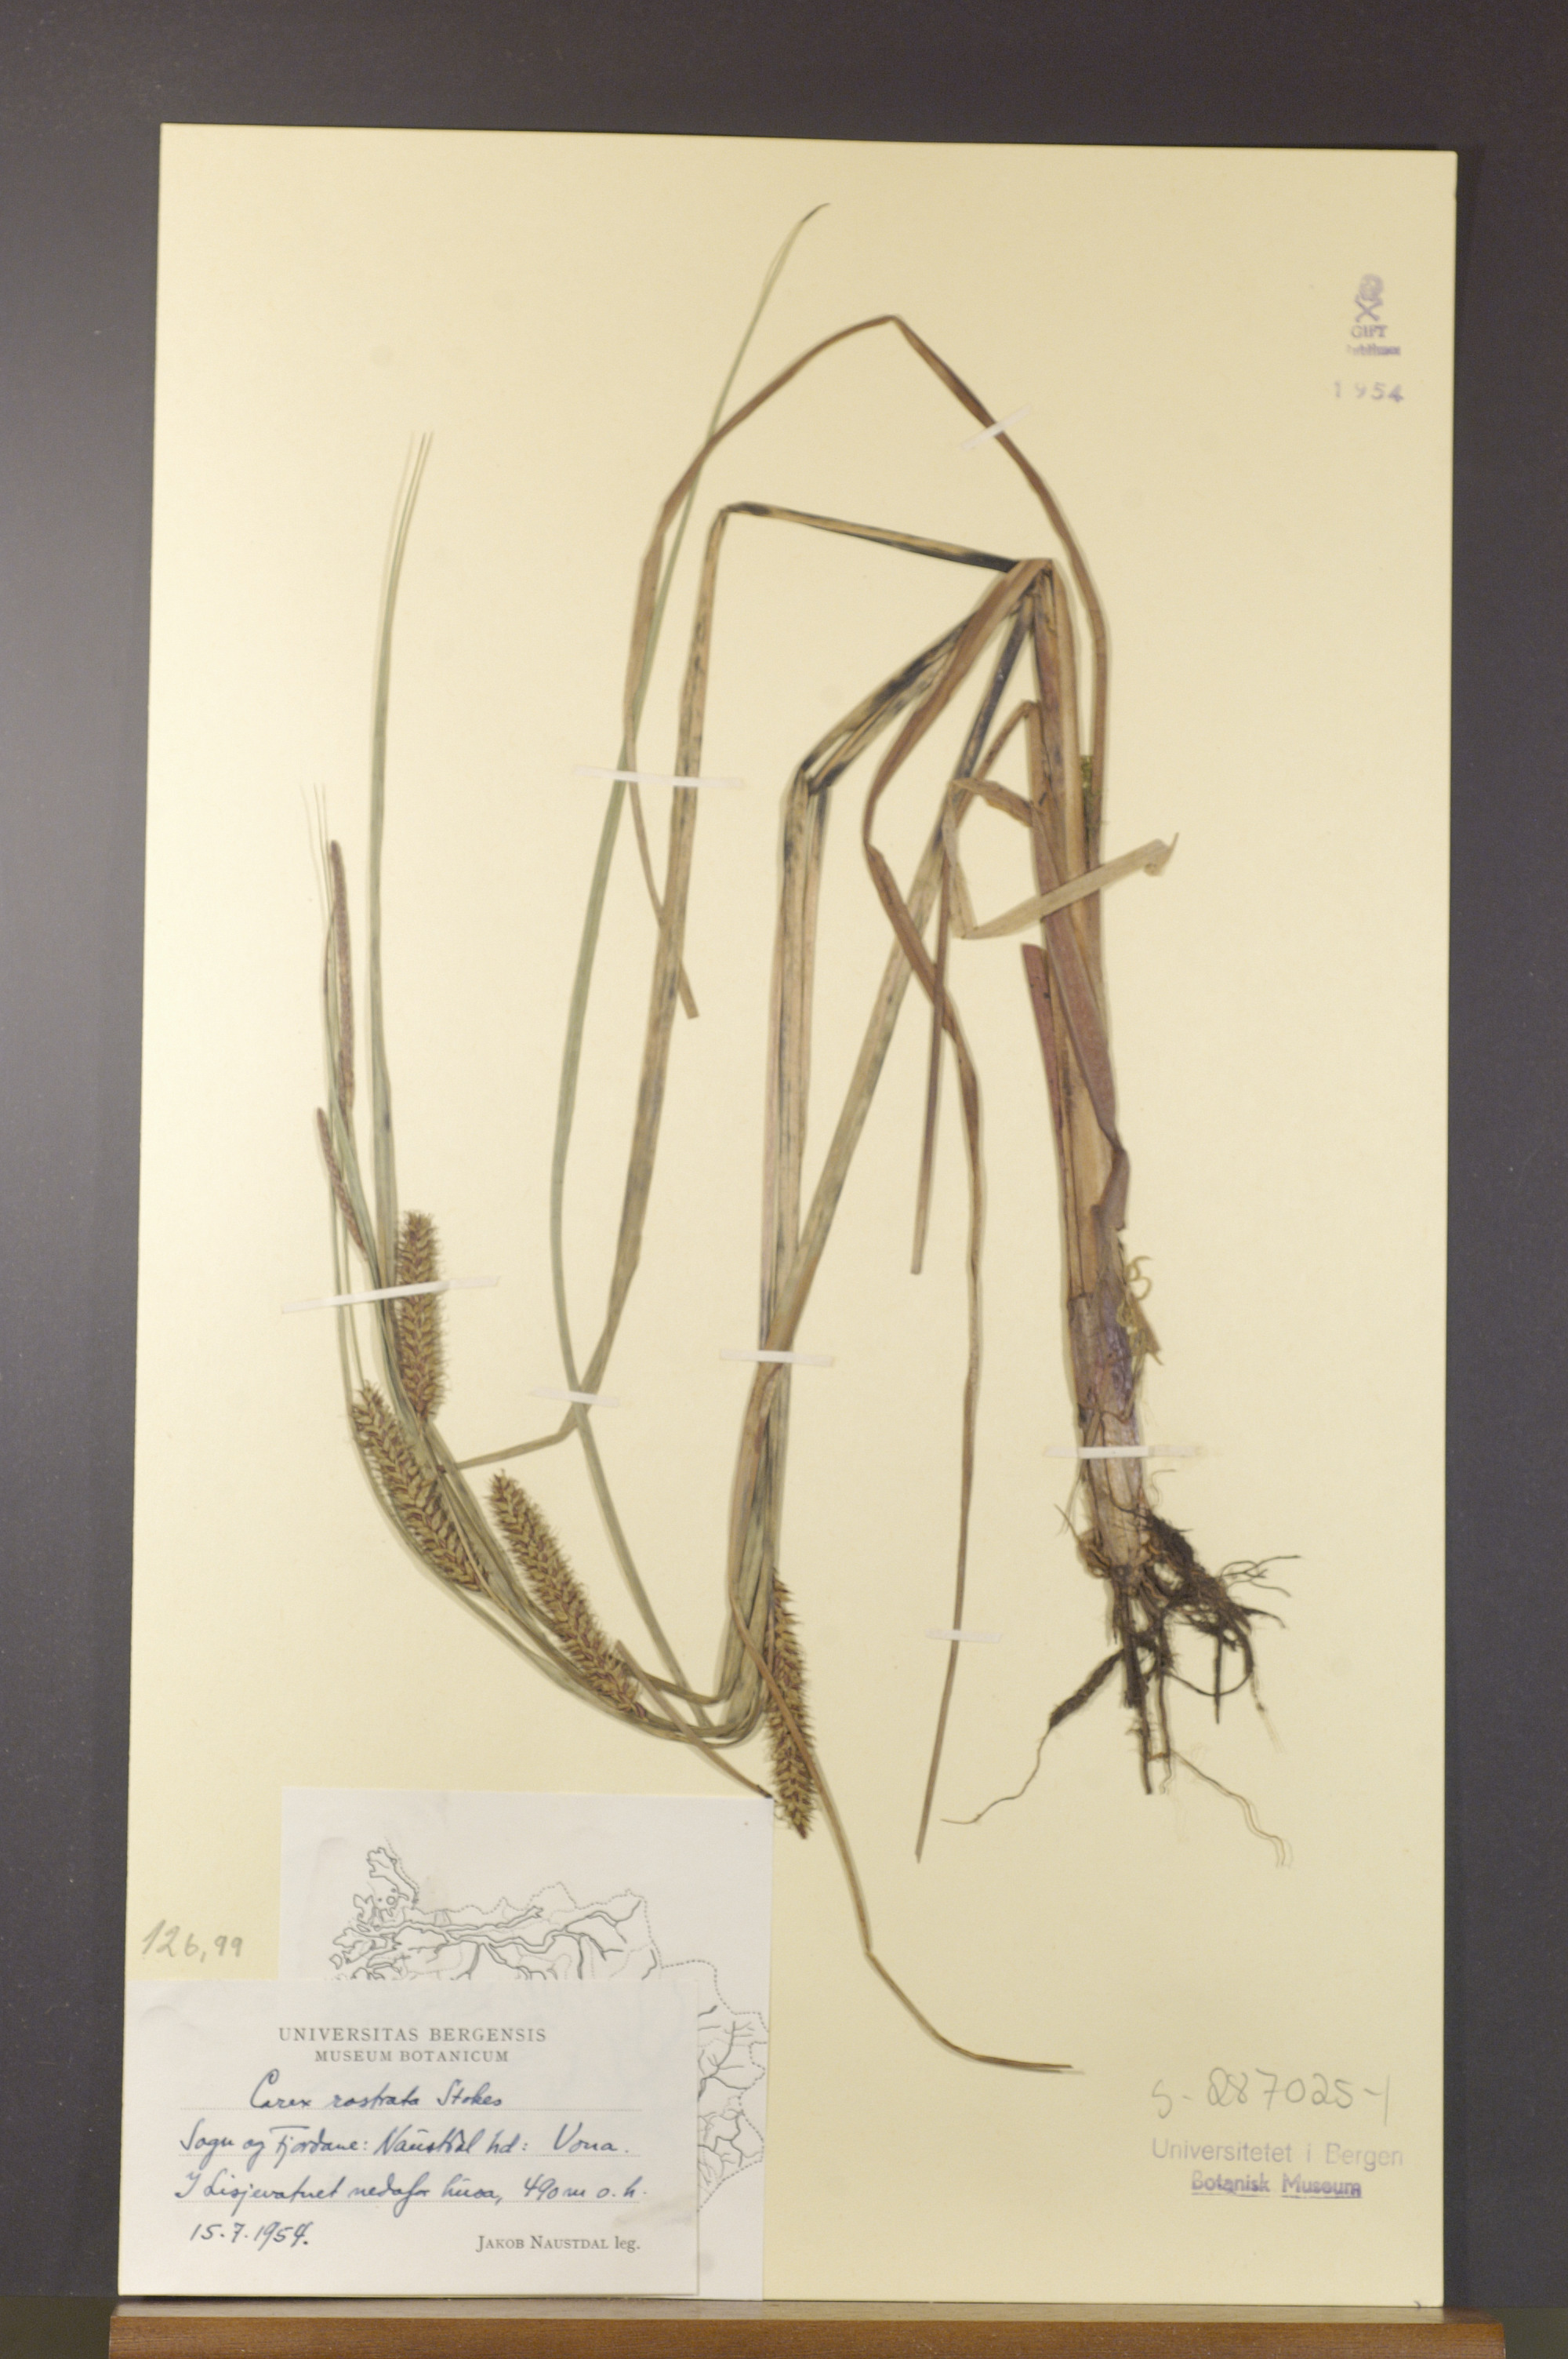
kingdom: Plantae
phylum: Tracheophyta
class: Liliopsida
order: Poales
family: Cyperaceae
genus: Carex
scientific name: Carex rostrata
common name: Bottle sedge
